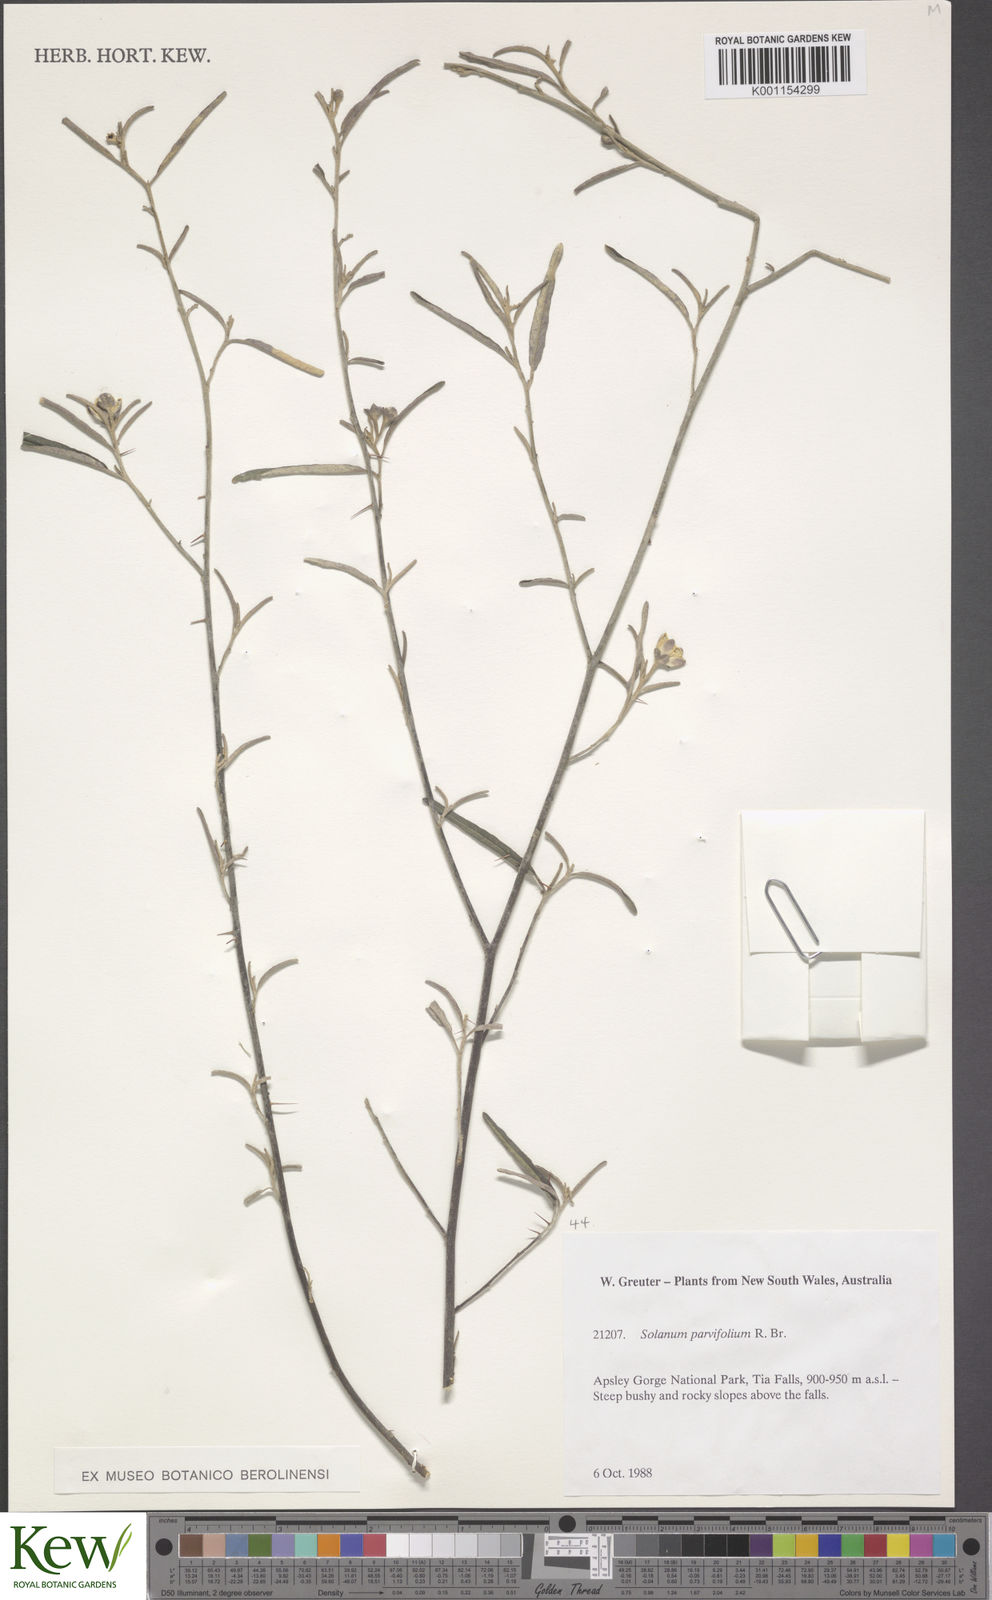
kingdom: Plantae
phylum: Tracheophyta
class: Magnoliopsida
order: Solanales
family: Solanaceae
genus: Solanum
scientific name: Solanum parvifolium
